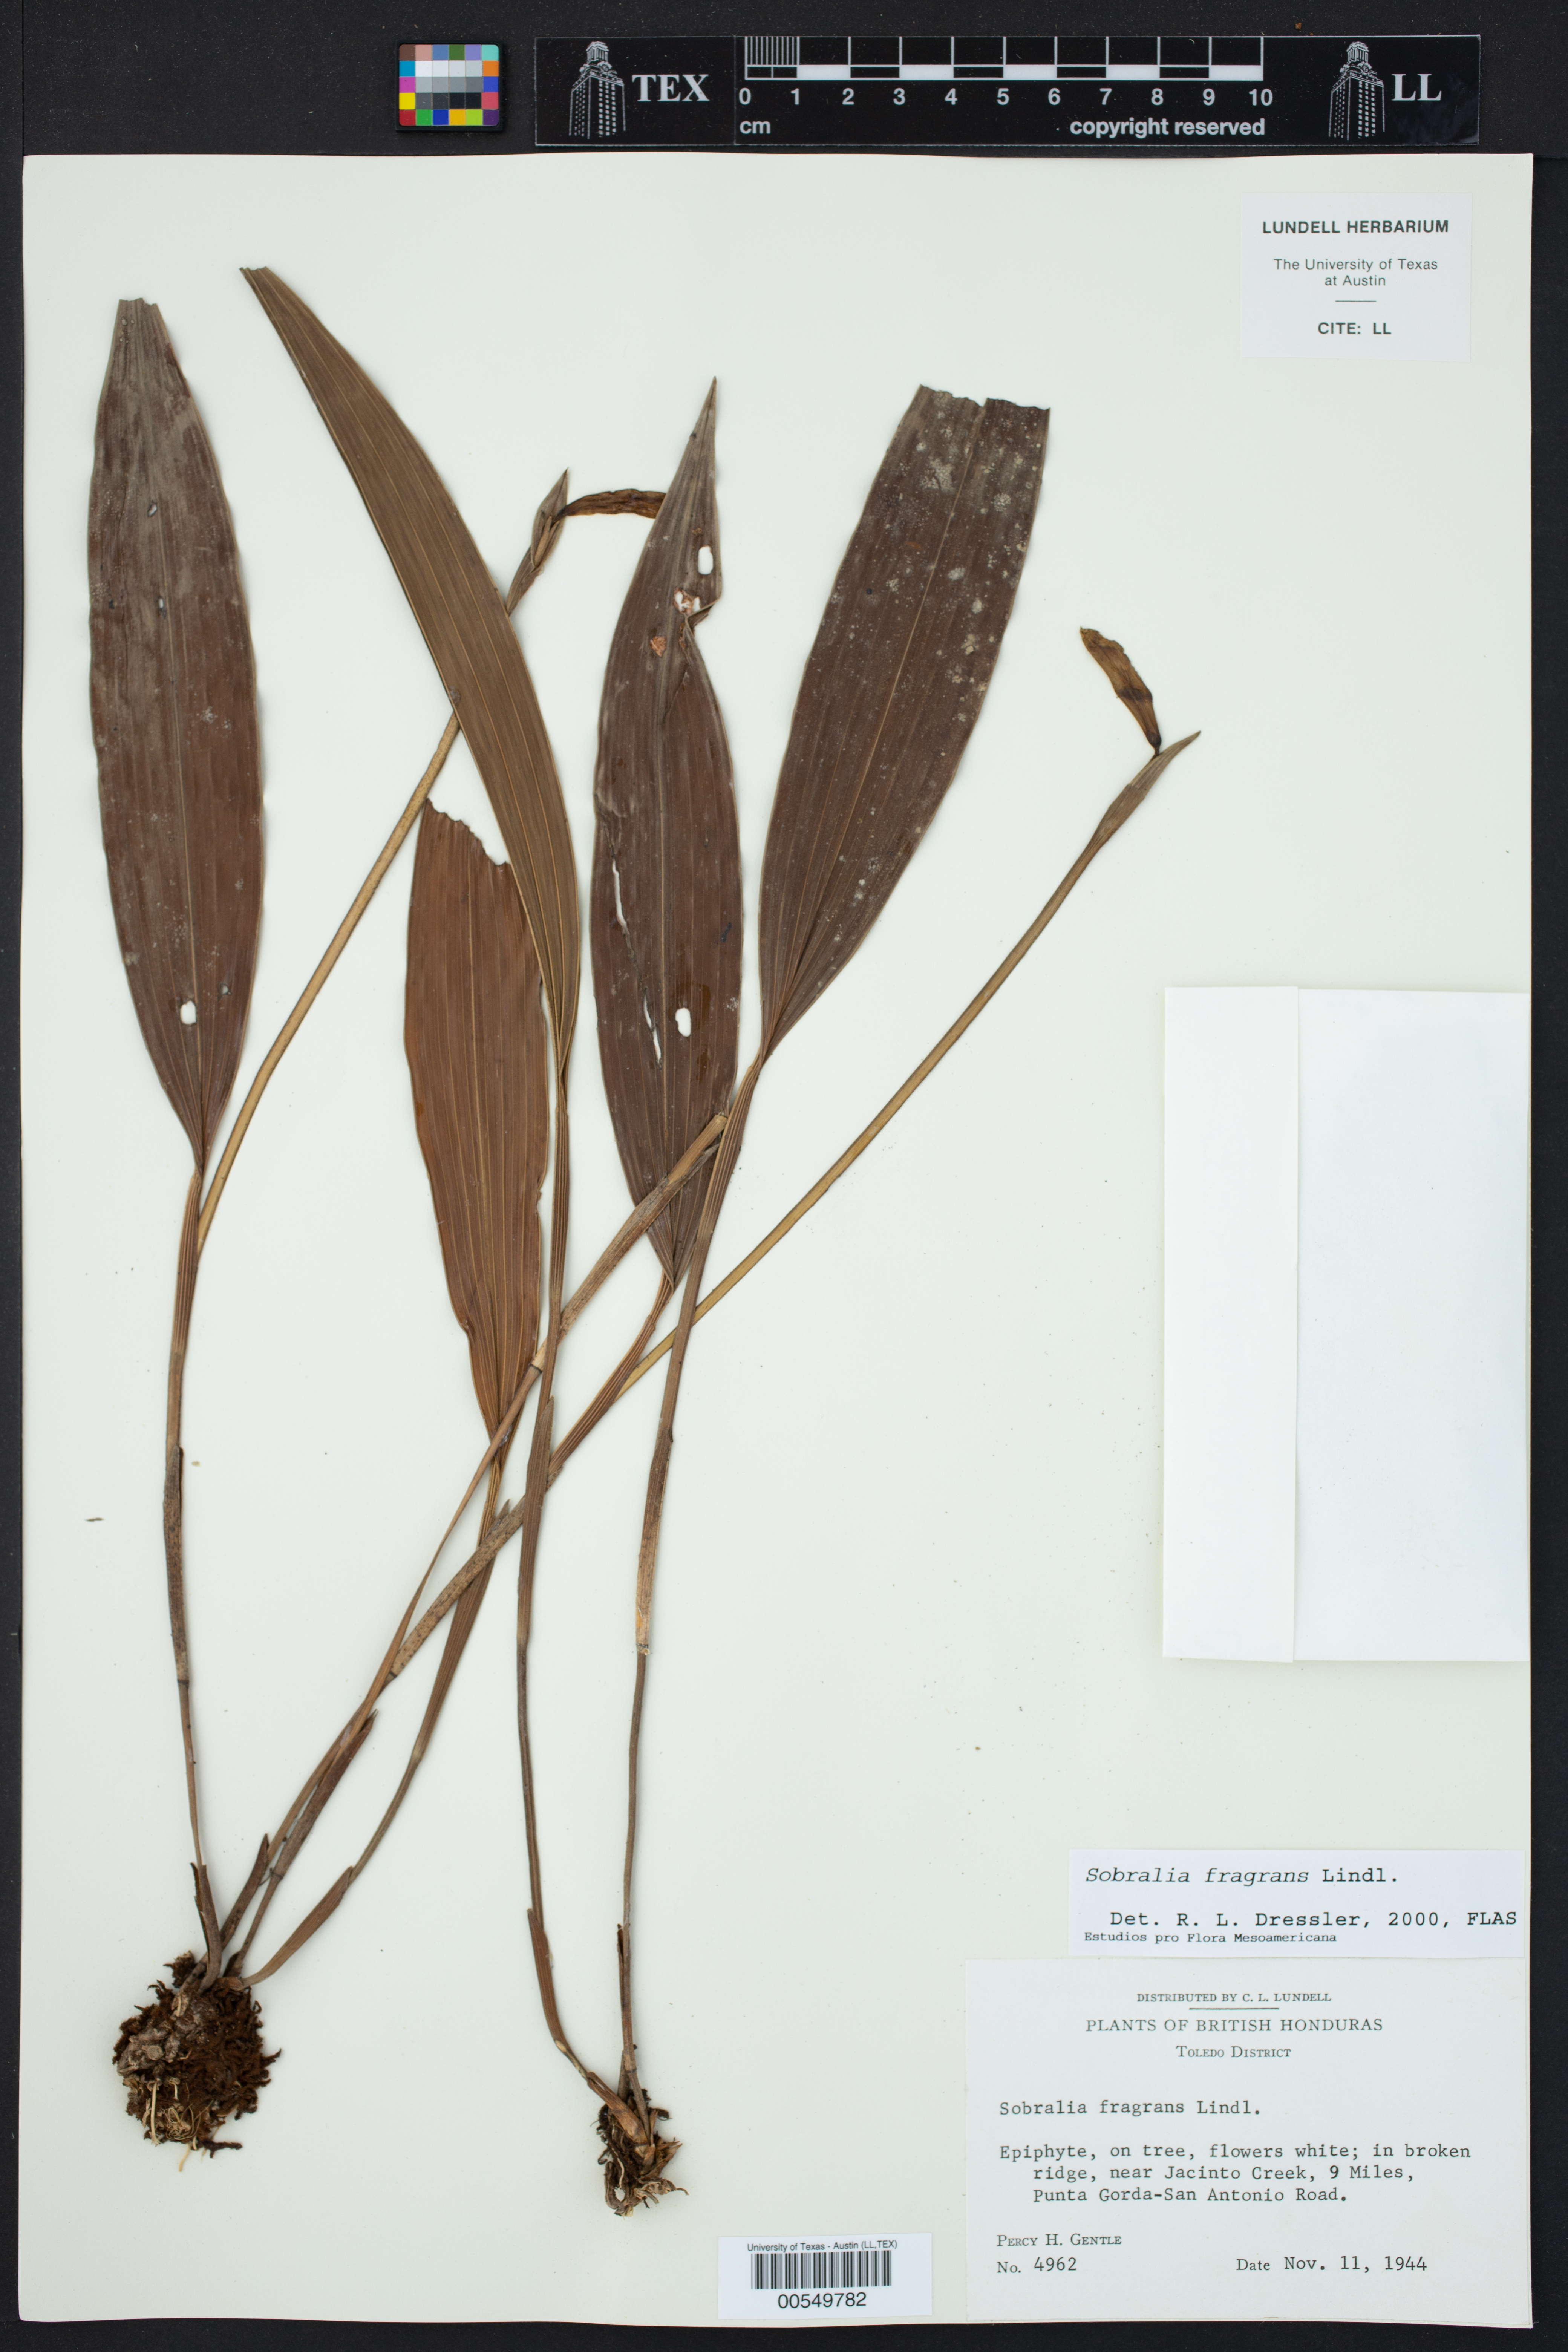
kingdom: Plantae
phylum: Tracheophyta
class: Liliopsida
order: Asparagales
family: Orchidaceae
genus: Sobralia
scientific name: Sobralia fragrans
